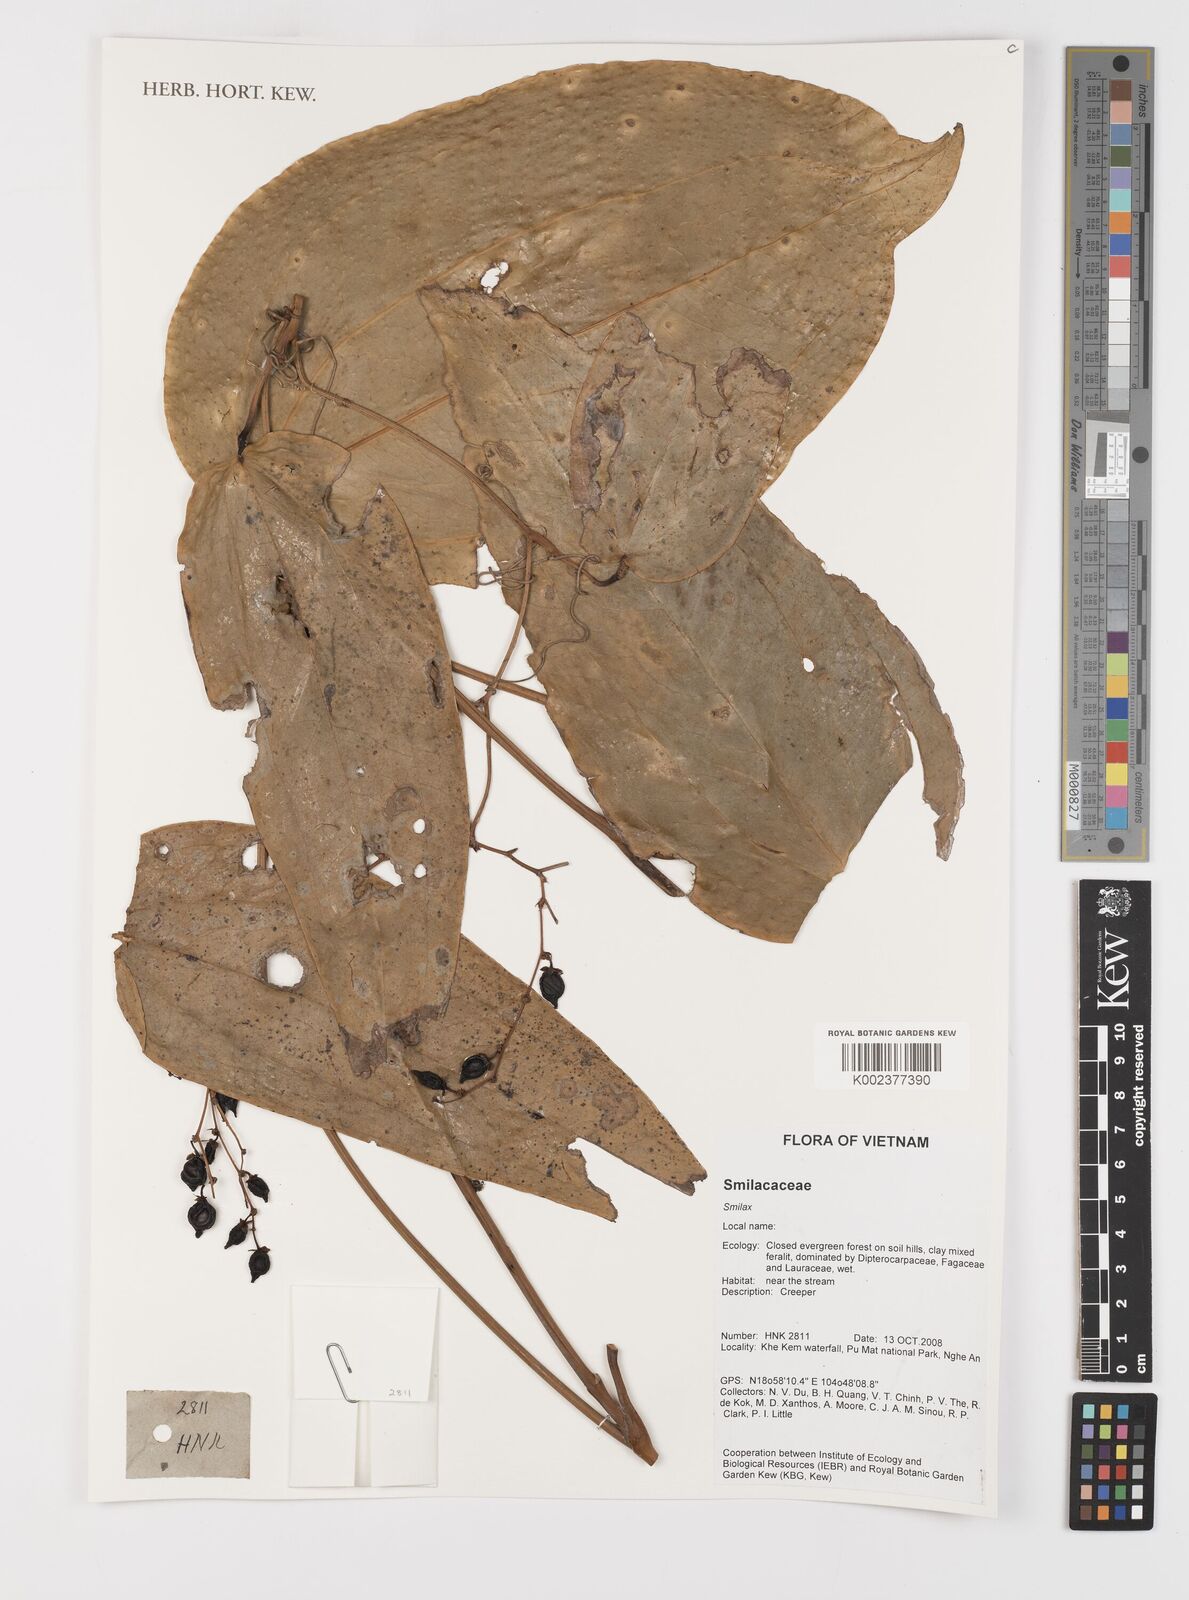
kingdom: Plantae
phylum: Tracheophyta
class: Liliopsida
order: Liliales
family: Smilacaceae
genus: Smilax
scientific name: Smilax
